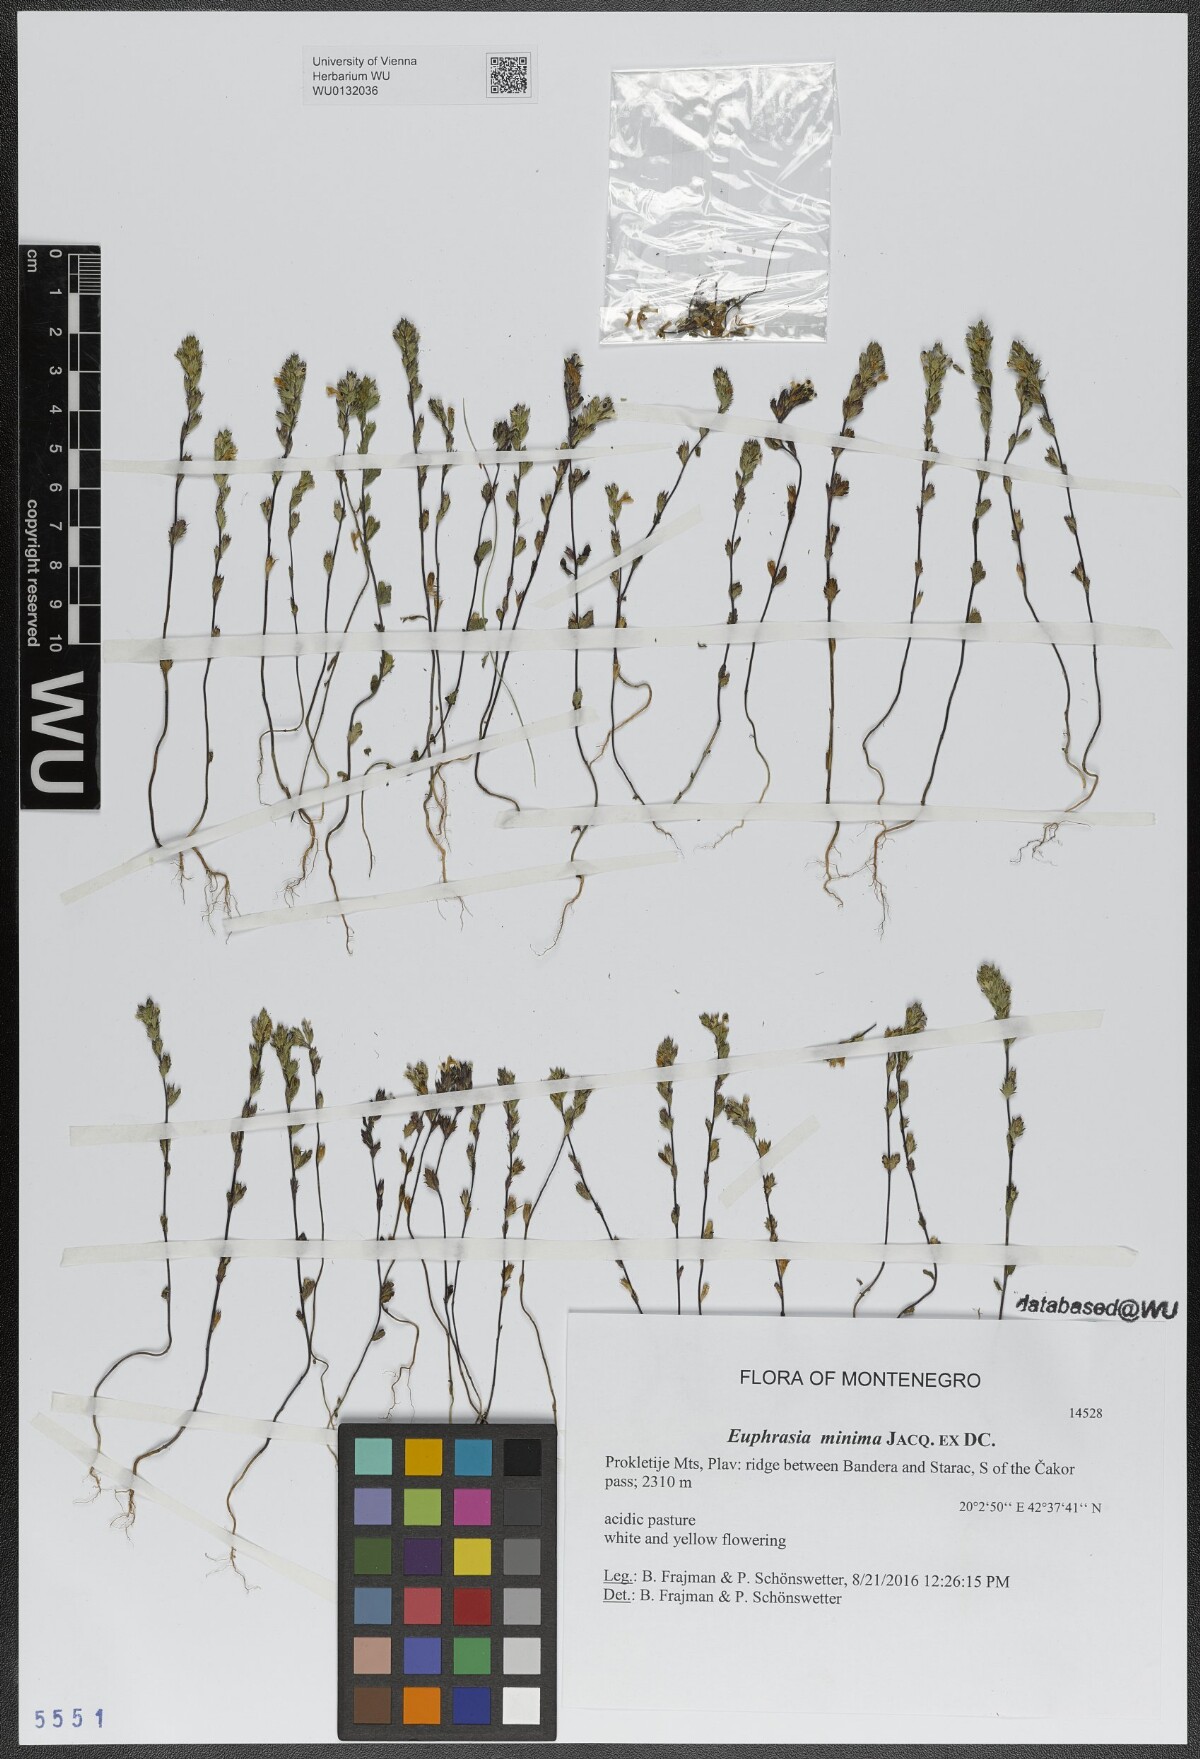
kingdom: Plantae
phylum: Tracheophyta
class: Magnoliopsida
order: Lamiales
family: Orobanchaceae
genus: Euphrasia
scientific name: Euphrasia minima
